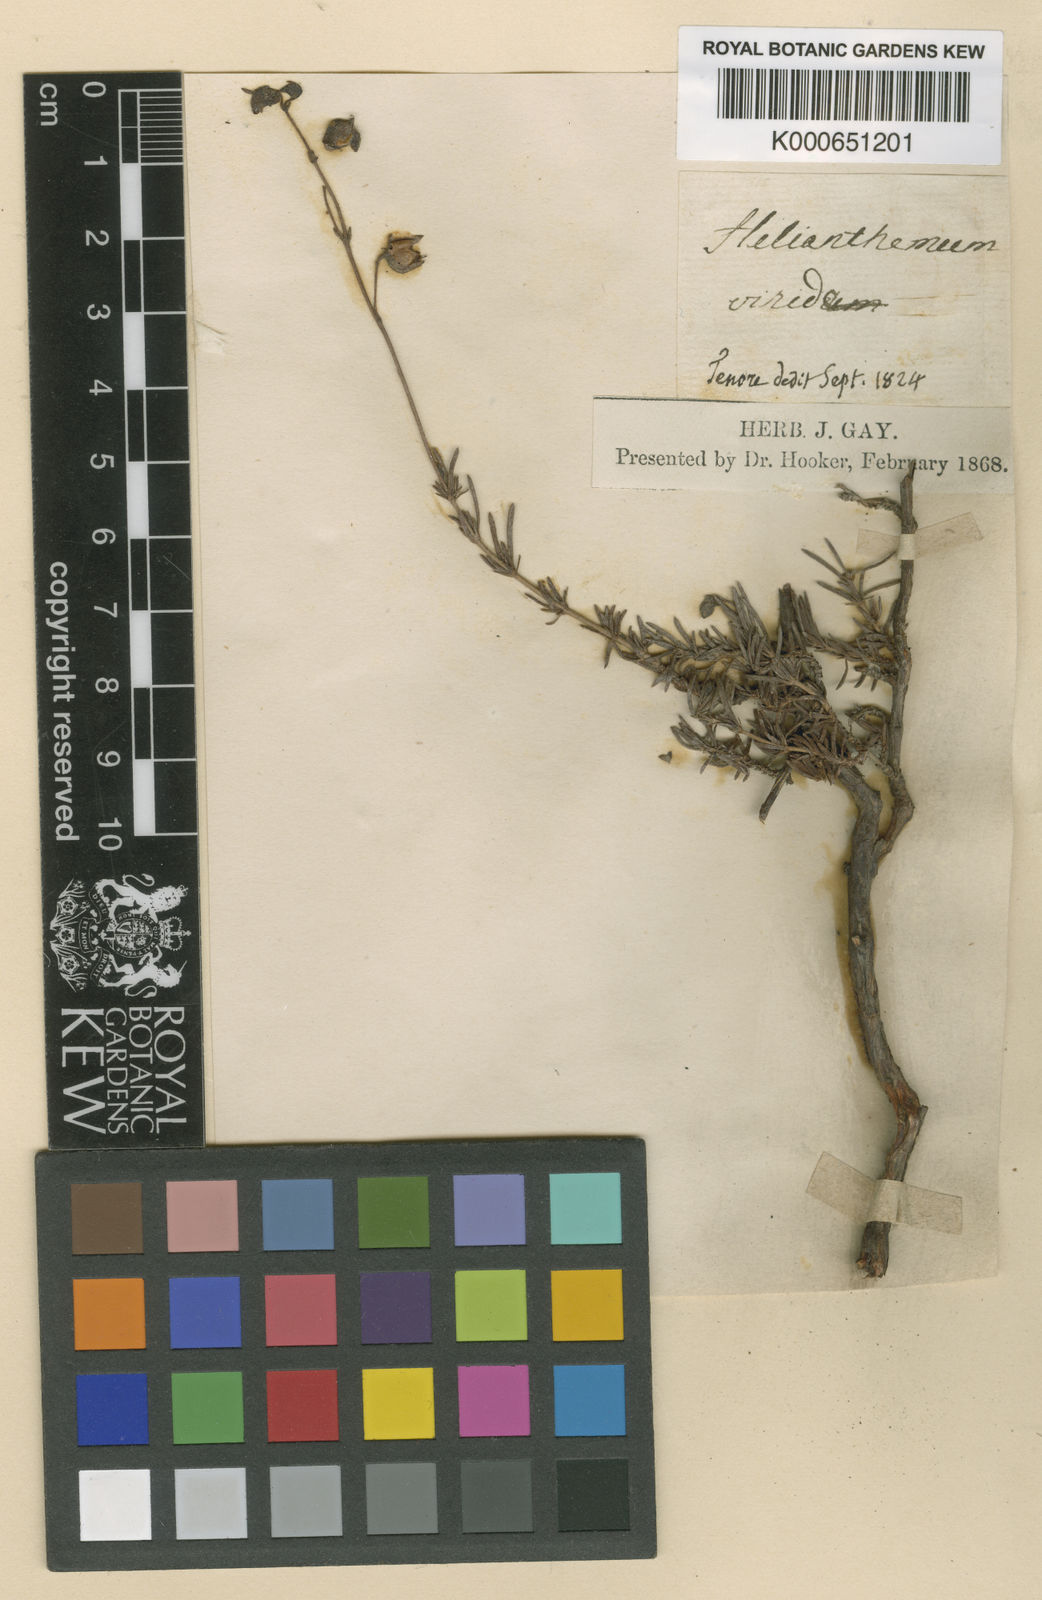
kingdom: Plantae
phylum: Tracheophyta
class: Magnoliopsida
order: Malvales
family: Cistaceae
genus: Fumana
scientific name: Fumana thymifolia
